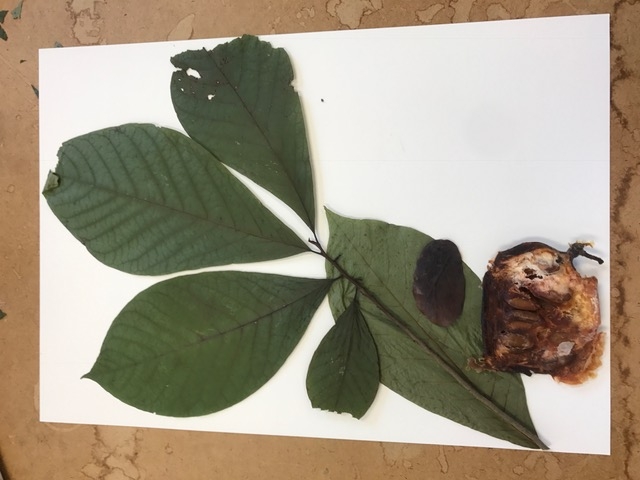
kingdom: Plantae
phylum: Tracheophyta
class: Magnoliopsida
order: Magnoliales
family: Annonaceae
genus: Asimina
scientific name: Asimina triloba
